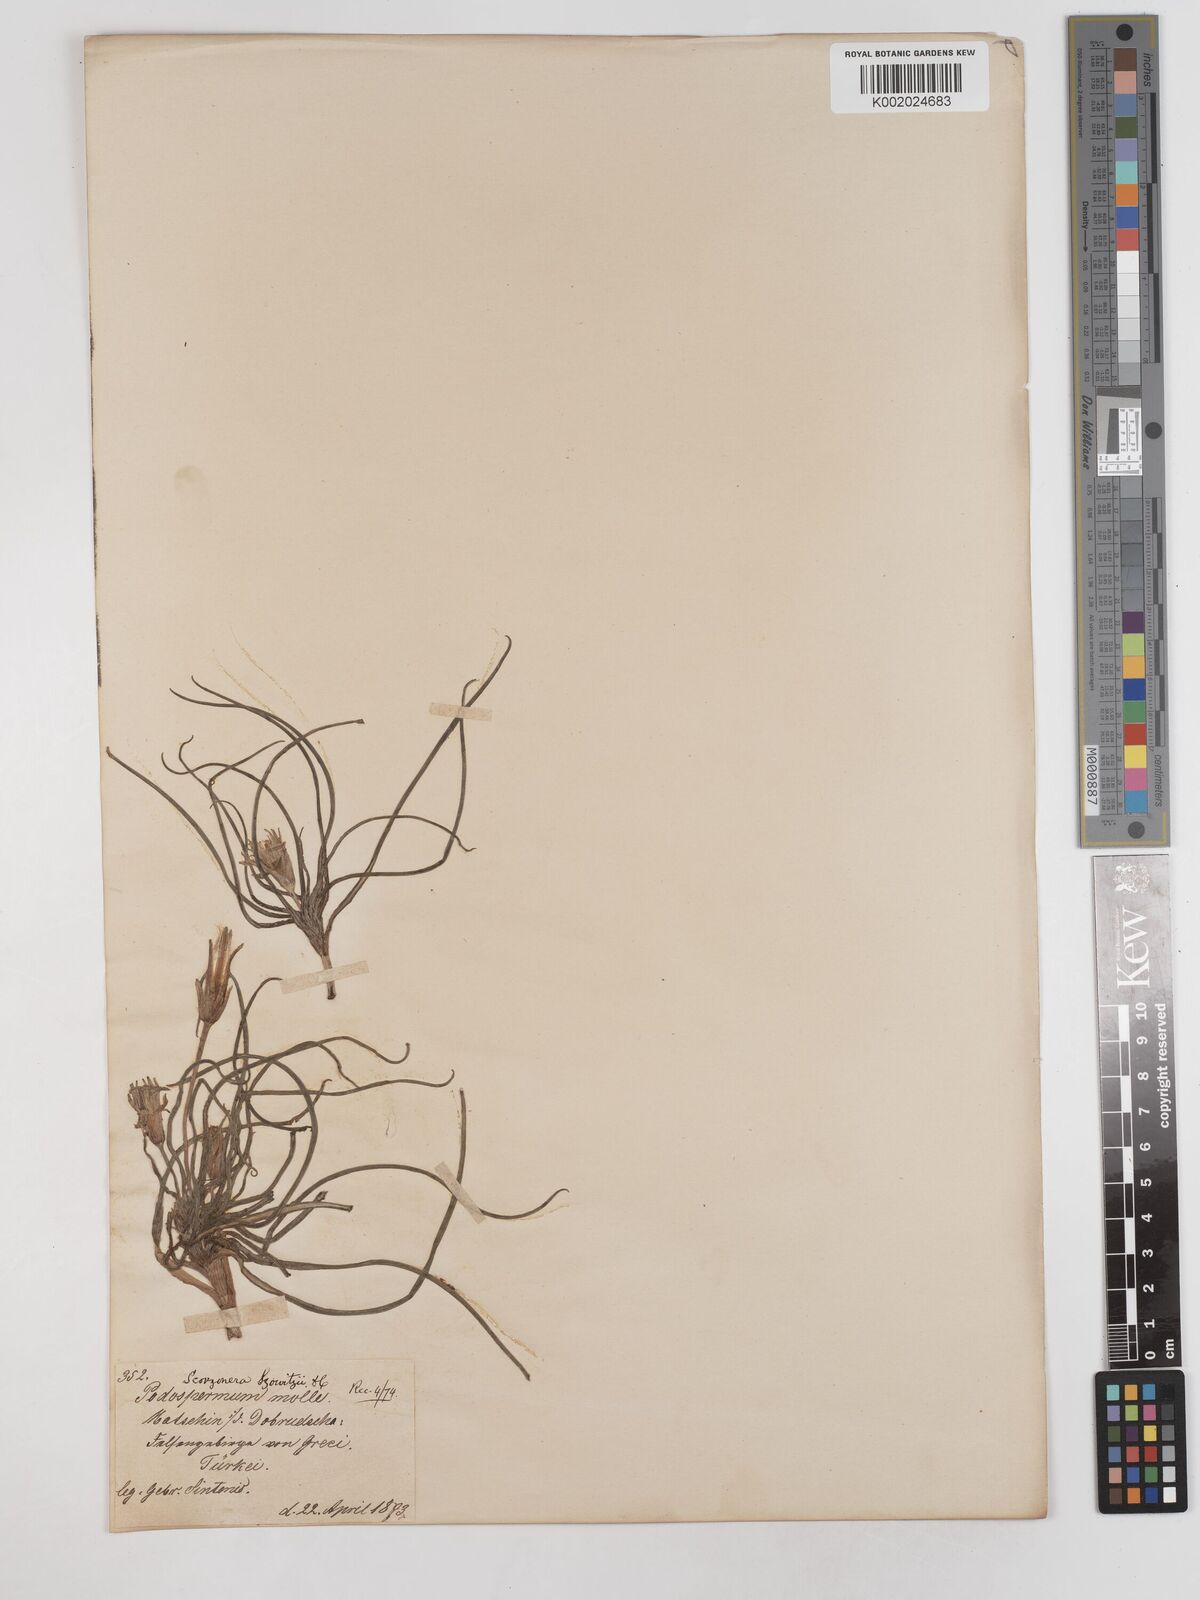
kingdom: Plantae
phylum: Tracheophyta
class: Magnoliopsida
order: Asterales
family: Asteraceae
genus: Candollea
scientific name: Candollea mollis
